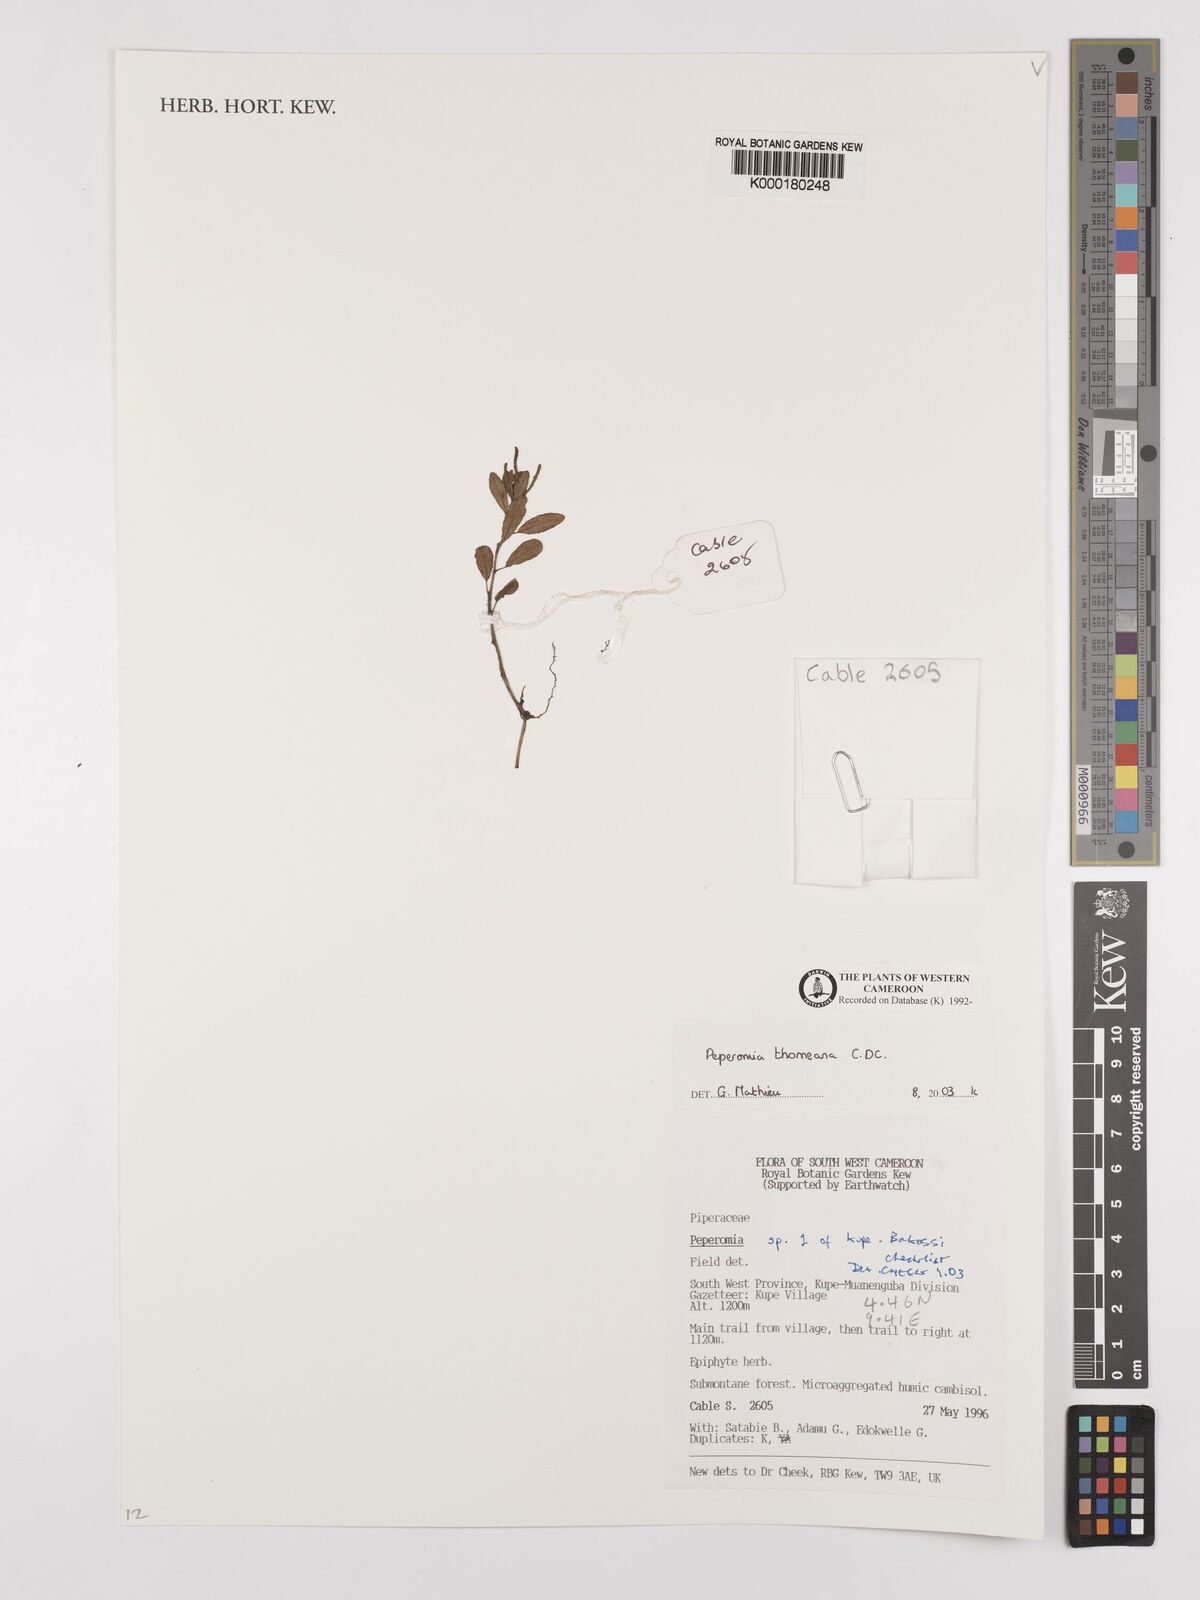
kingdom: Plantae
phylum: Tracheophyta
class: Magnoliopsida
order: Piperales
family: Piperaceae
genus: Peperomia
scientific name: Peperomia thomeana
